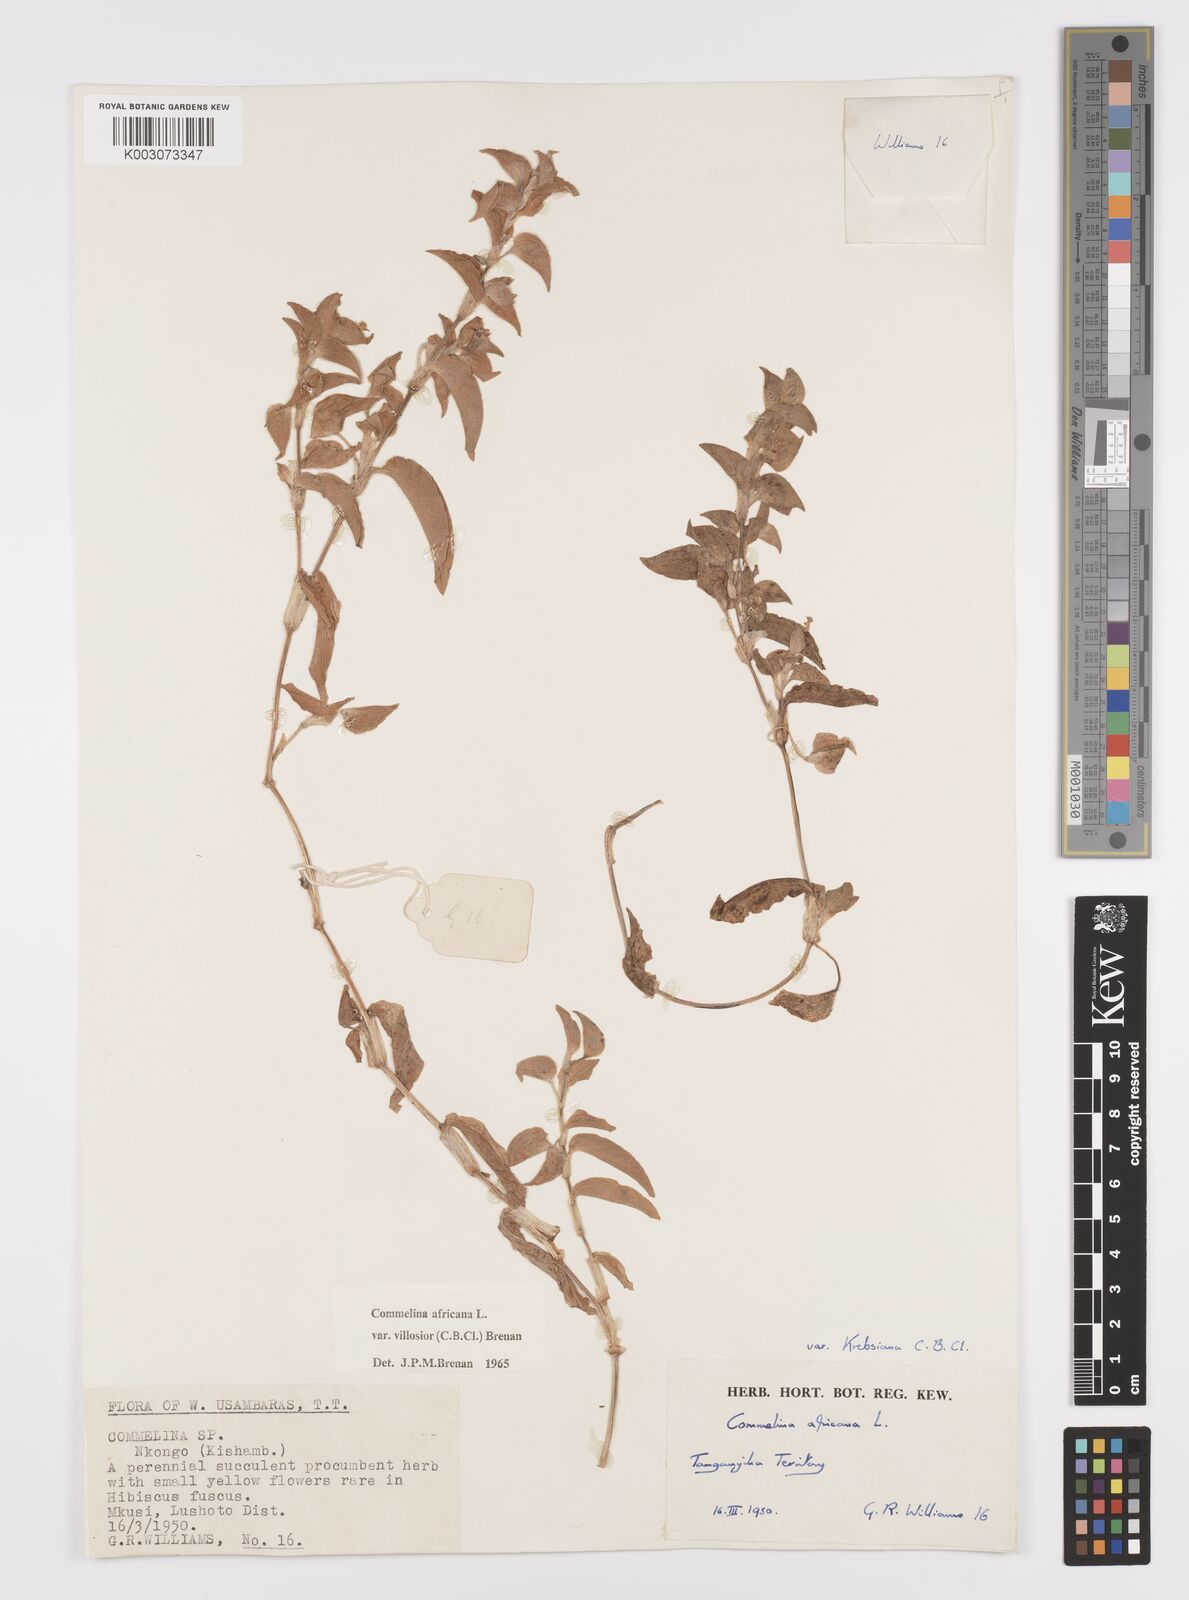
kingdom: Plantae
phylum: Tracheophyta
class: Liliopsida
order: Commelinales
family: Commelinaceae
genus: Commelina
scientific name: Commelina africana
